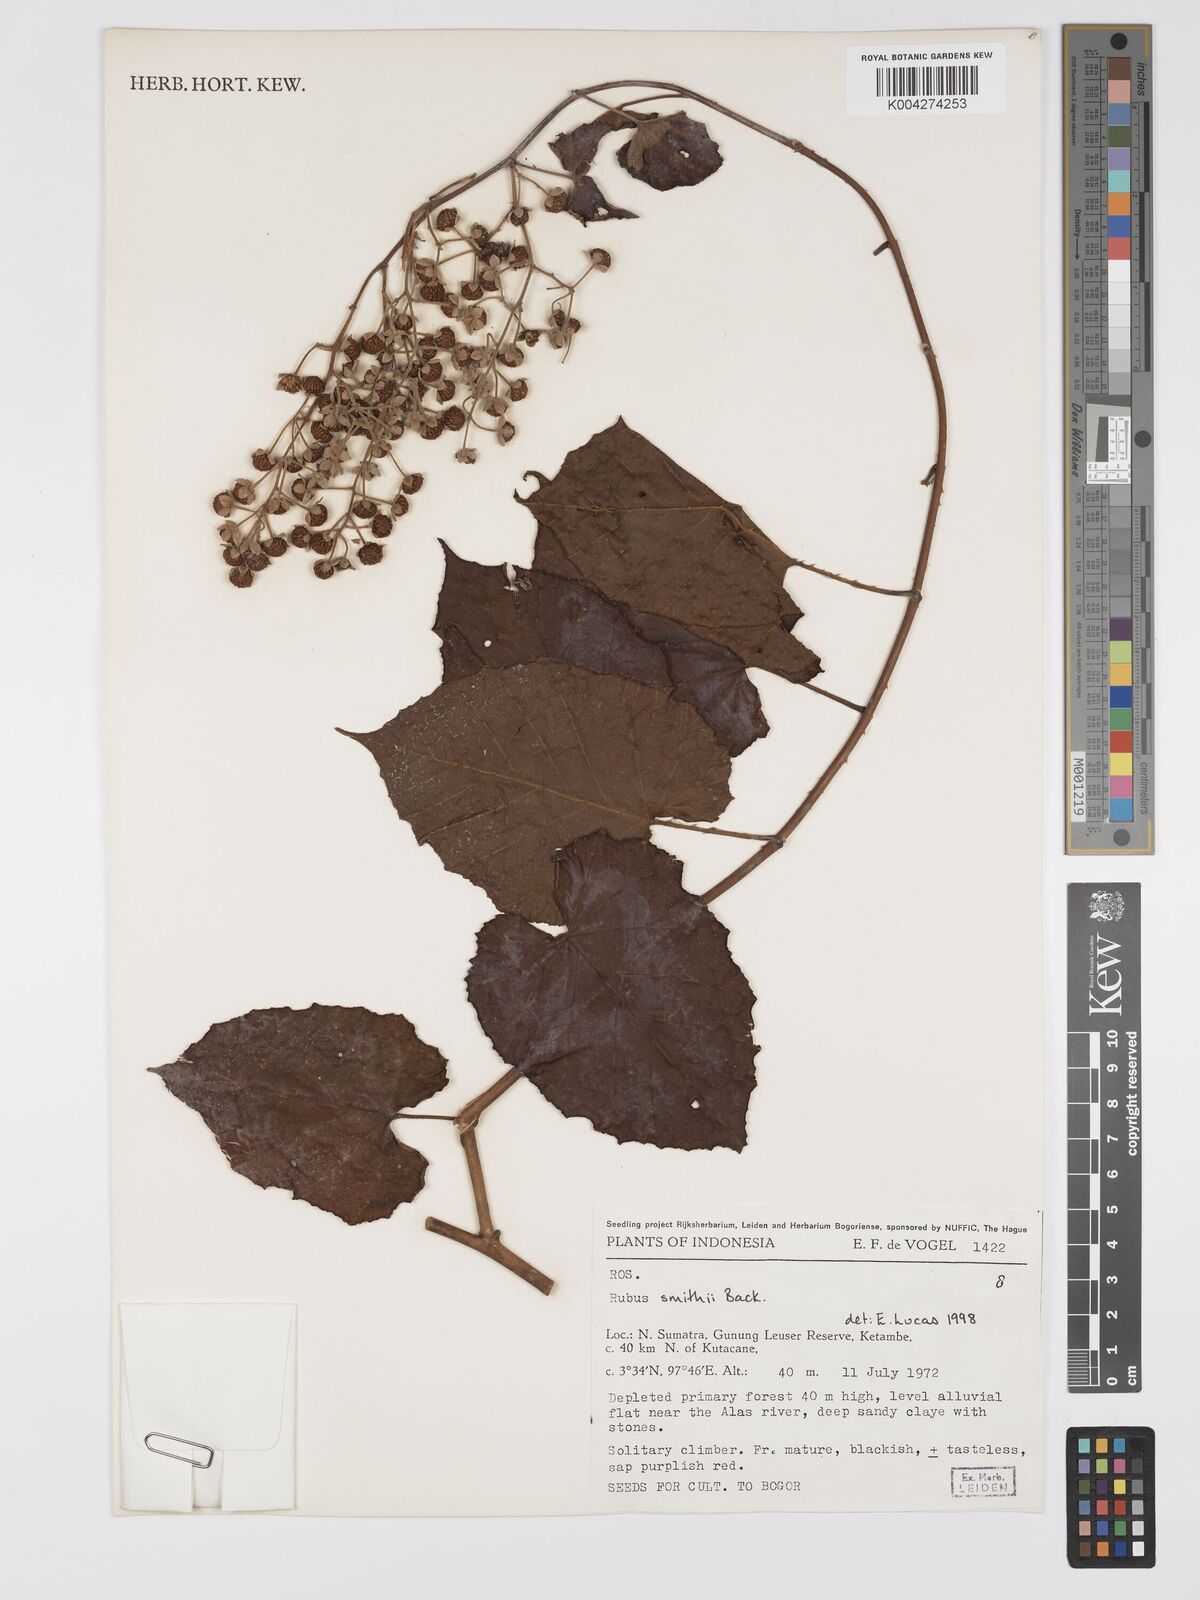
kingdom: Plantae
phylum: Tracheophyta
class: Magnoliopsida
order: Rosales
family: Rosaceae
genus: Rubus
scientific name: Rubus
